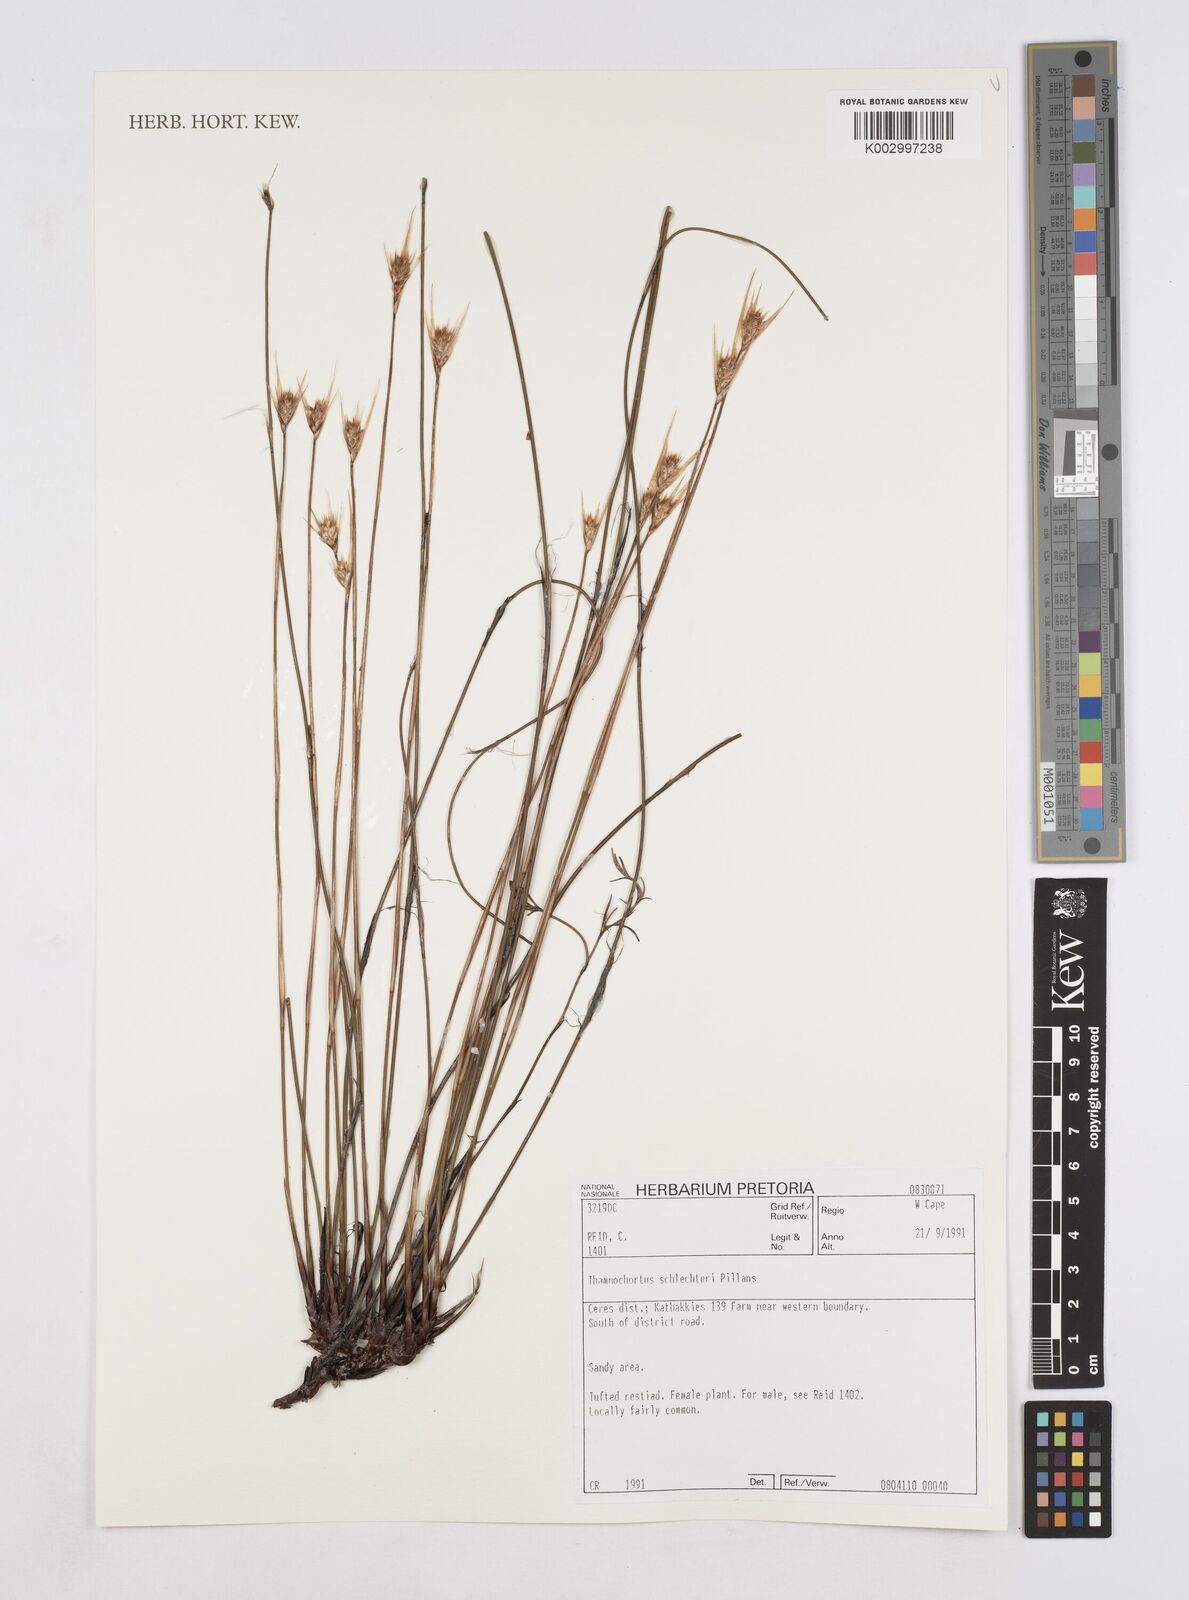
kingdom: Plantae
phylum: Tracheophyta
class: Liliopsida
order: Poales
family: Restionaceae
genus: Thamnochortus
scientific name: Thamnochortus schlechteri
